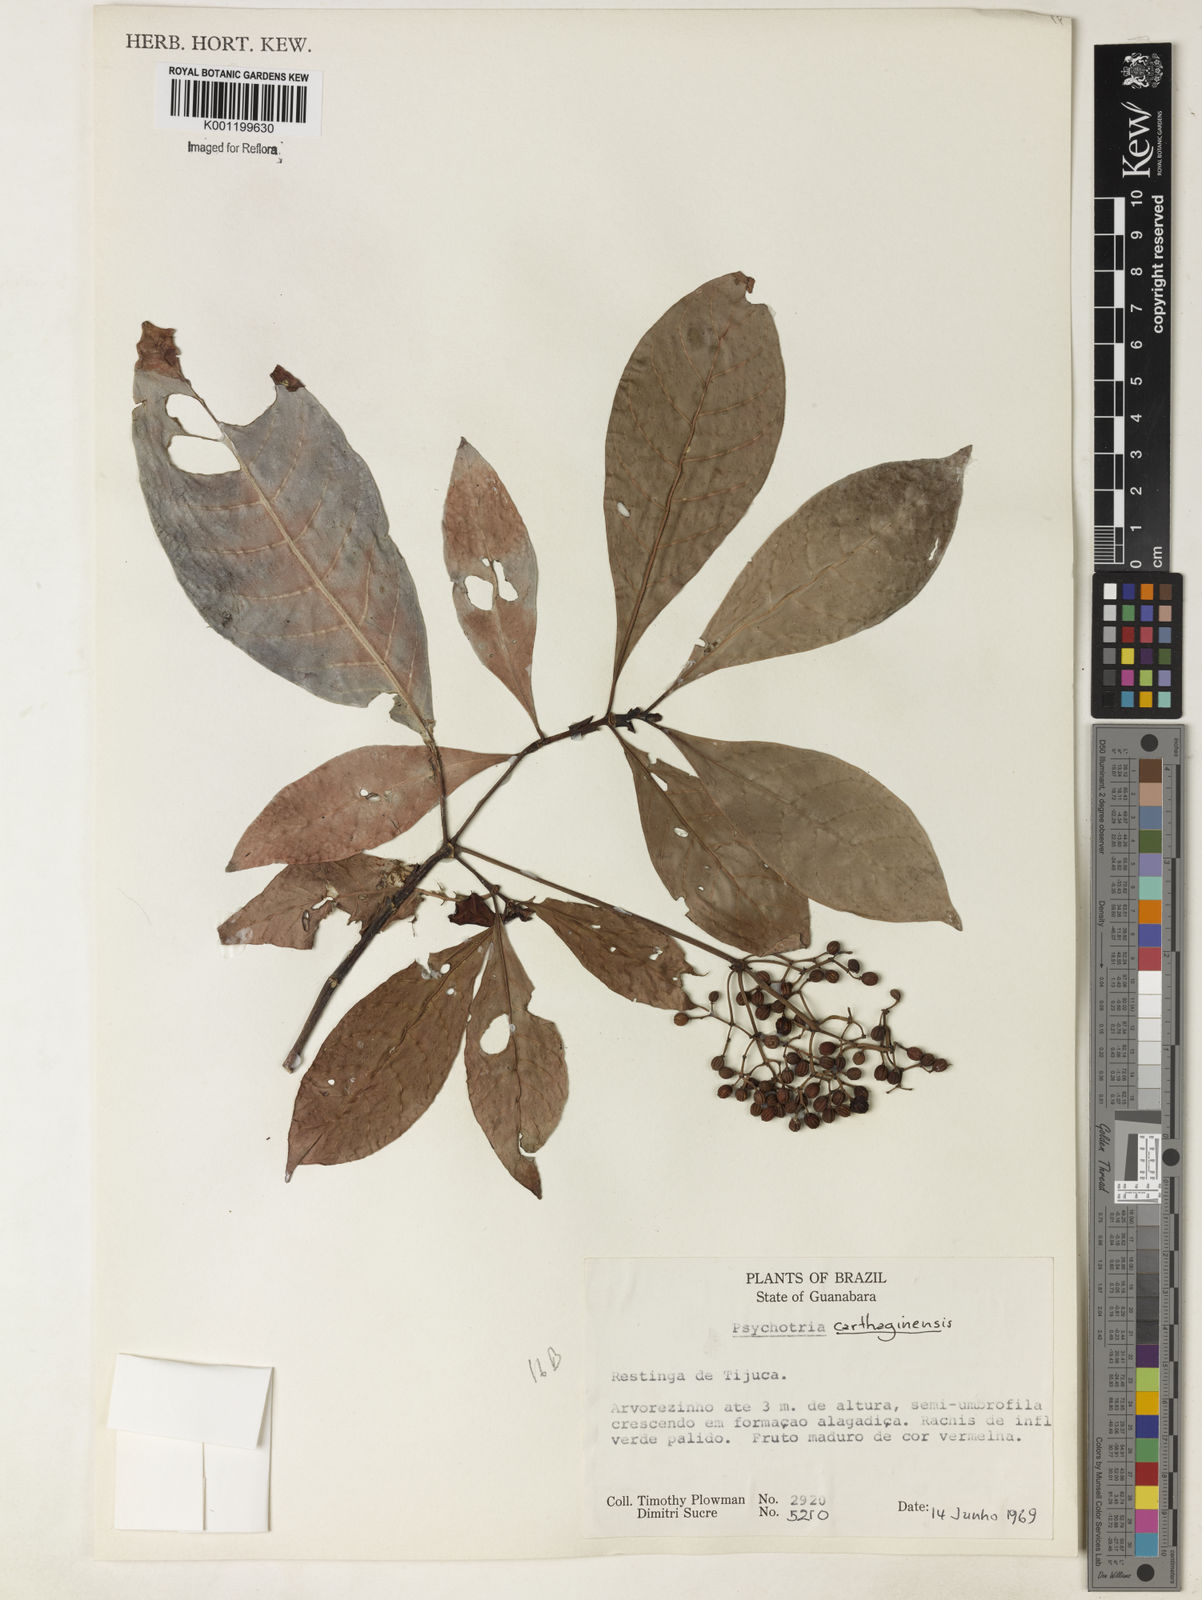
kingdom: Plantae
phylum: Tracheophyta
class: Magnoliopsida
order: Gentianales
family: Rubiaceae
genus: Psychotria
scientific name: Psychotria carthagenensis
